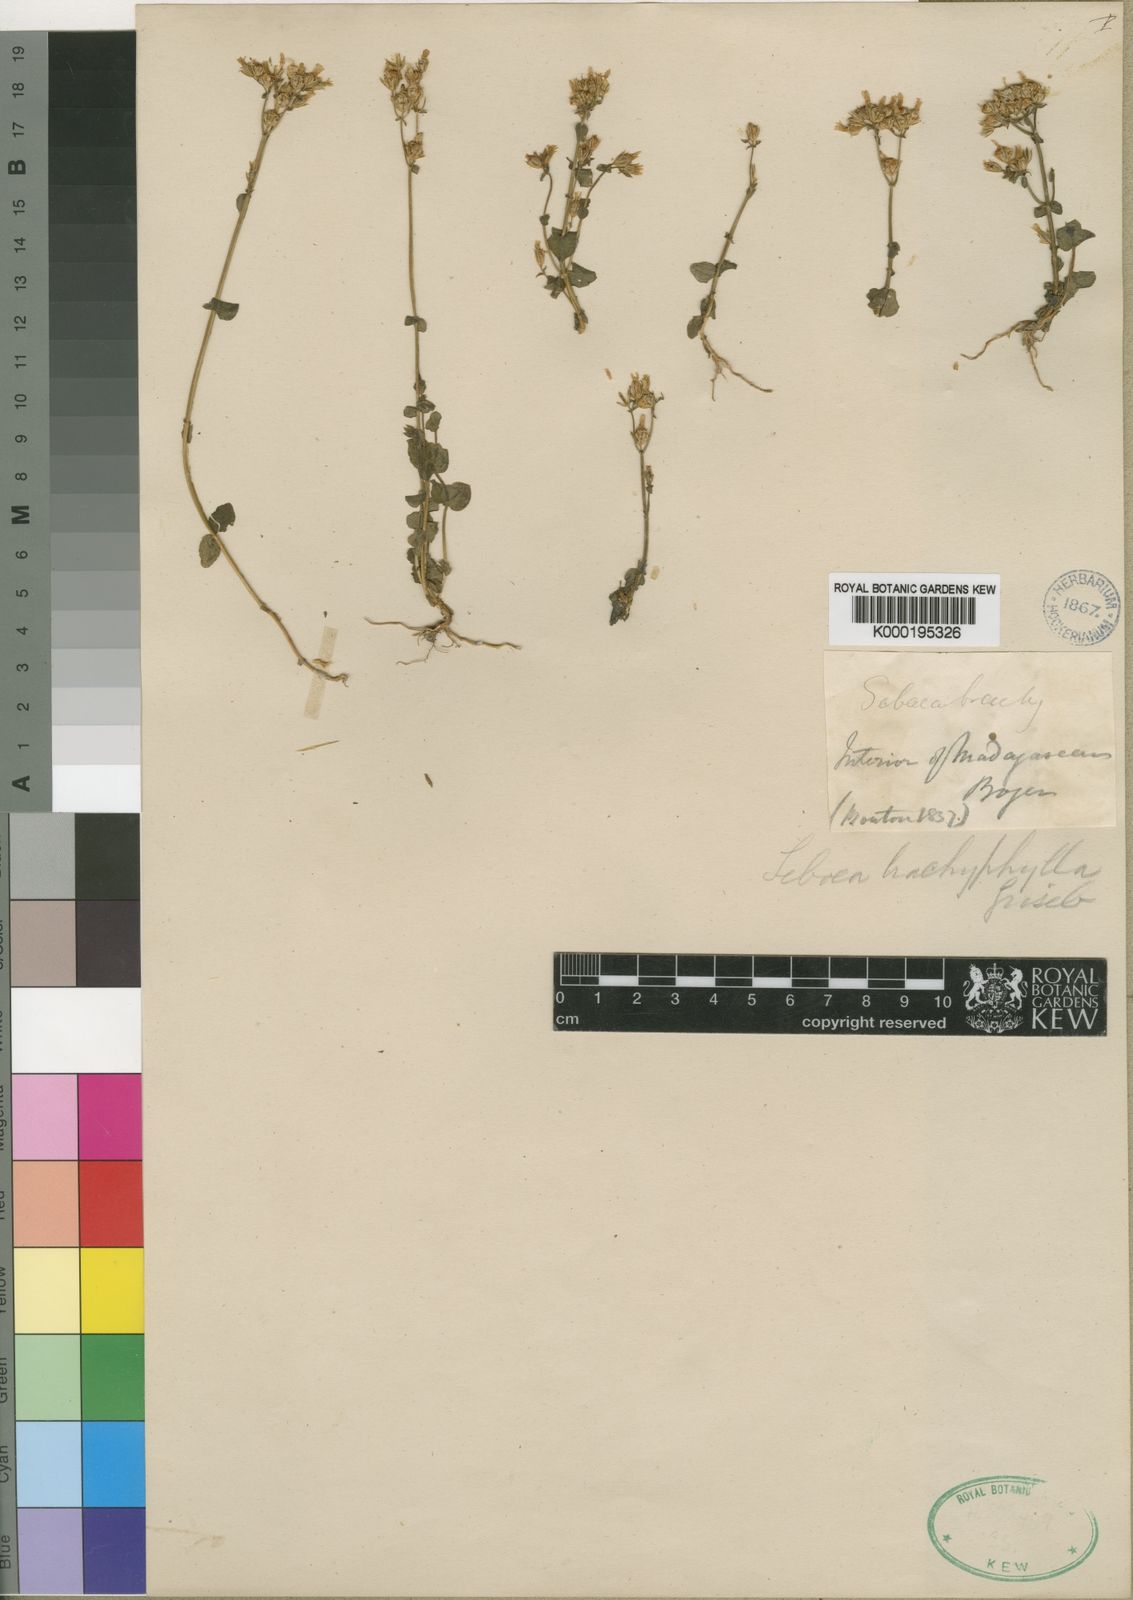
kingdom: Plantae
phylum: Tracheophyta
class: Magnoliopsida
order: Gentianales
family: Gentianaceae
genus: Sebaea
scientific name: Sebaea brachyphylla
